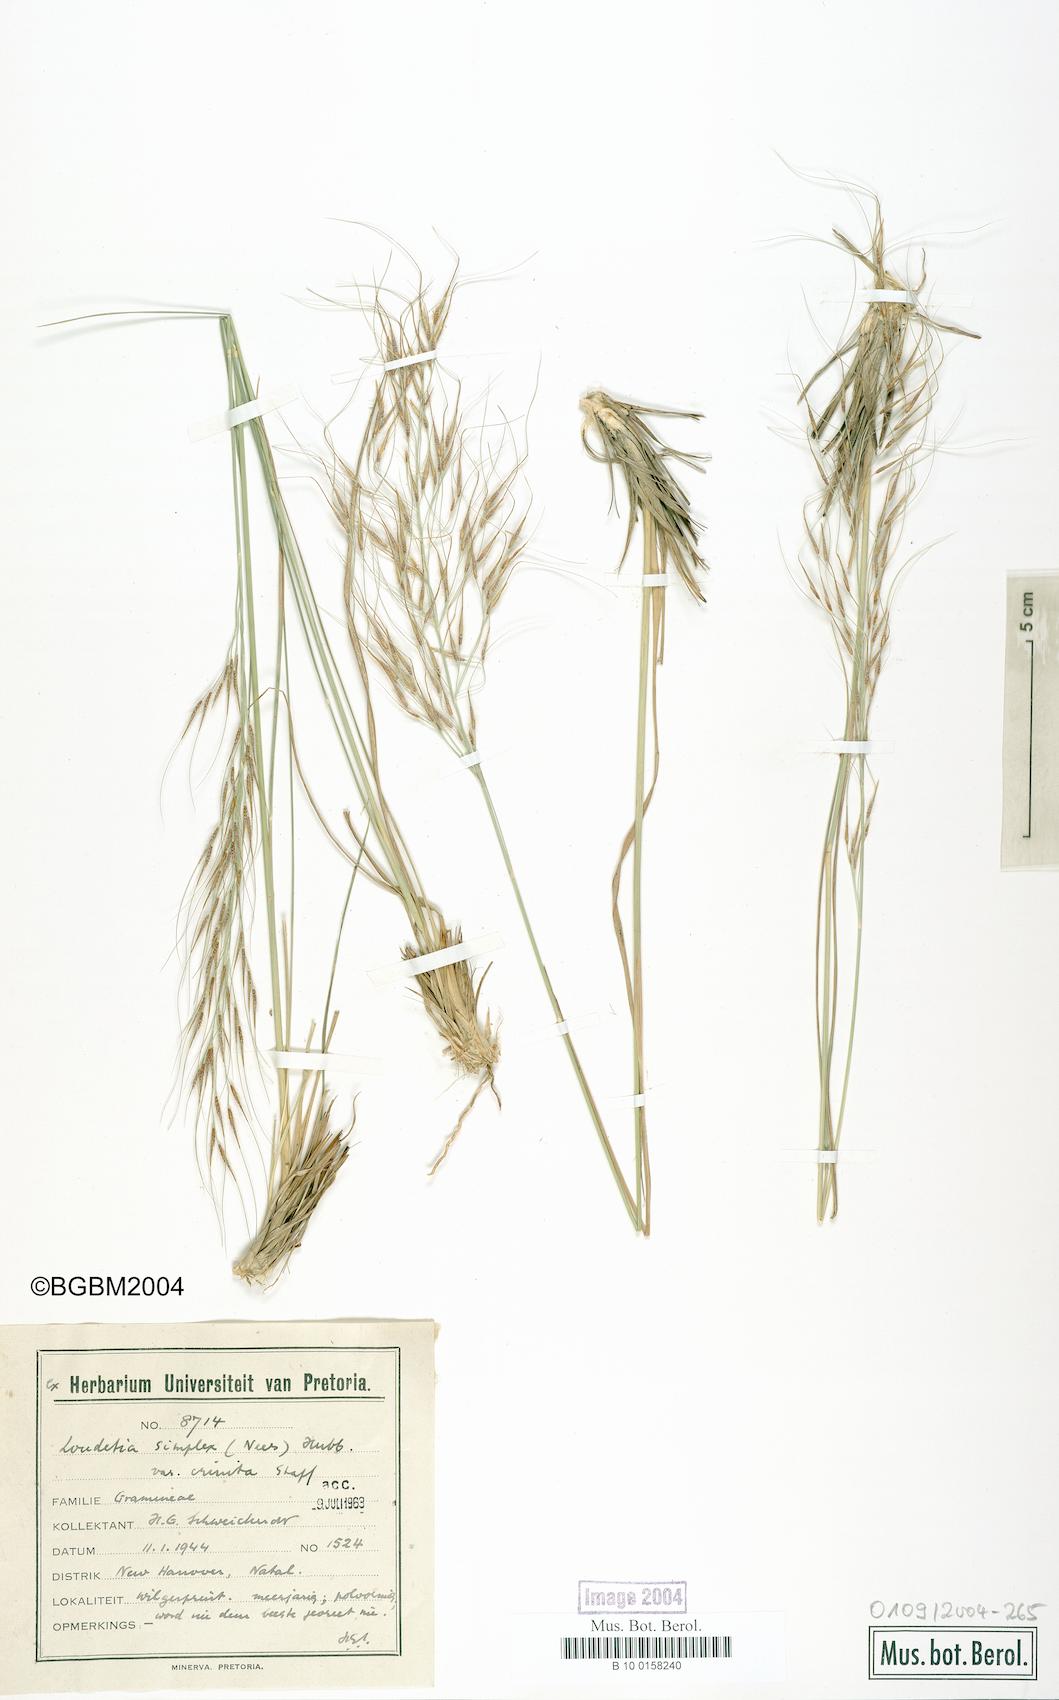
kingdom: Plantae
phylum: Tracheophyta
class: Liliopsida
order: Poales
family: Poaceae
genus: Loudetia
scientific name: Loudetia simplex
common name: Common russet grass
